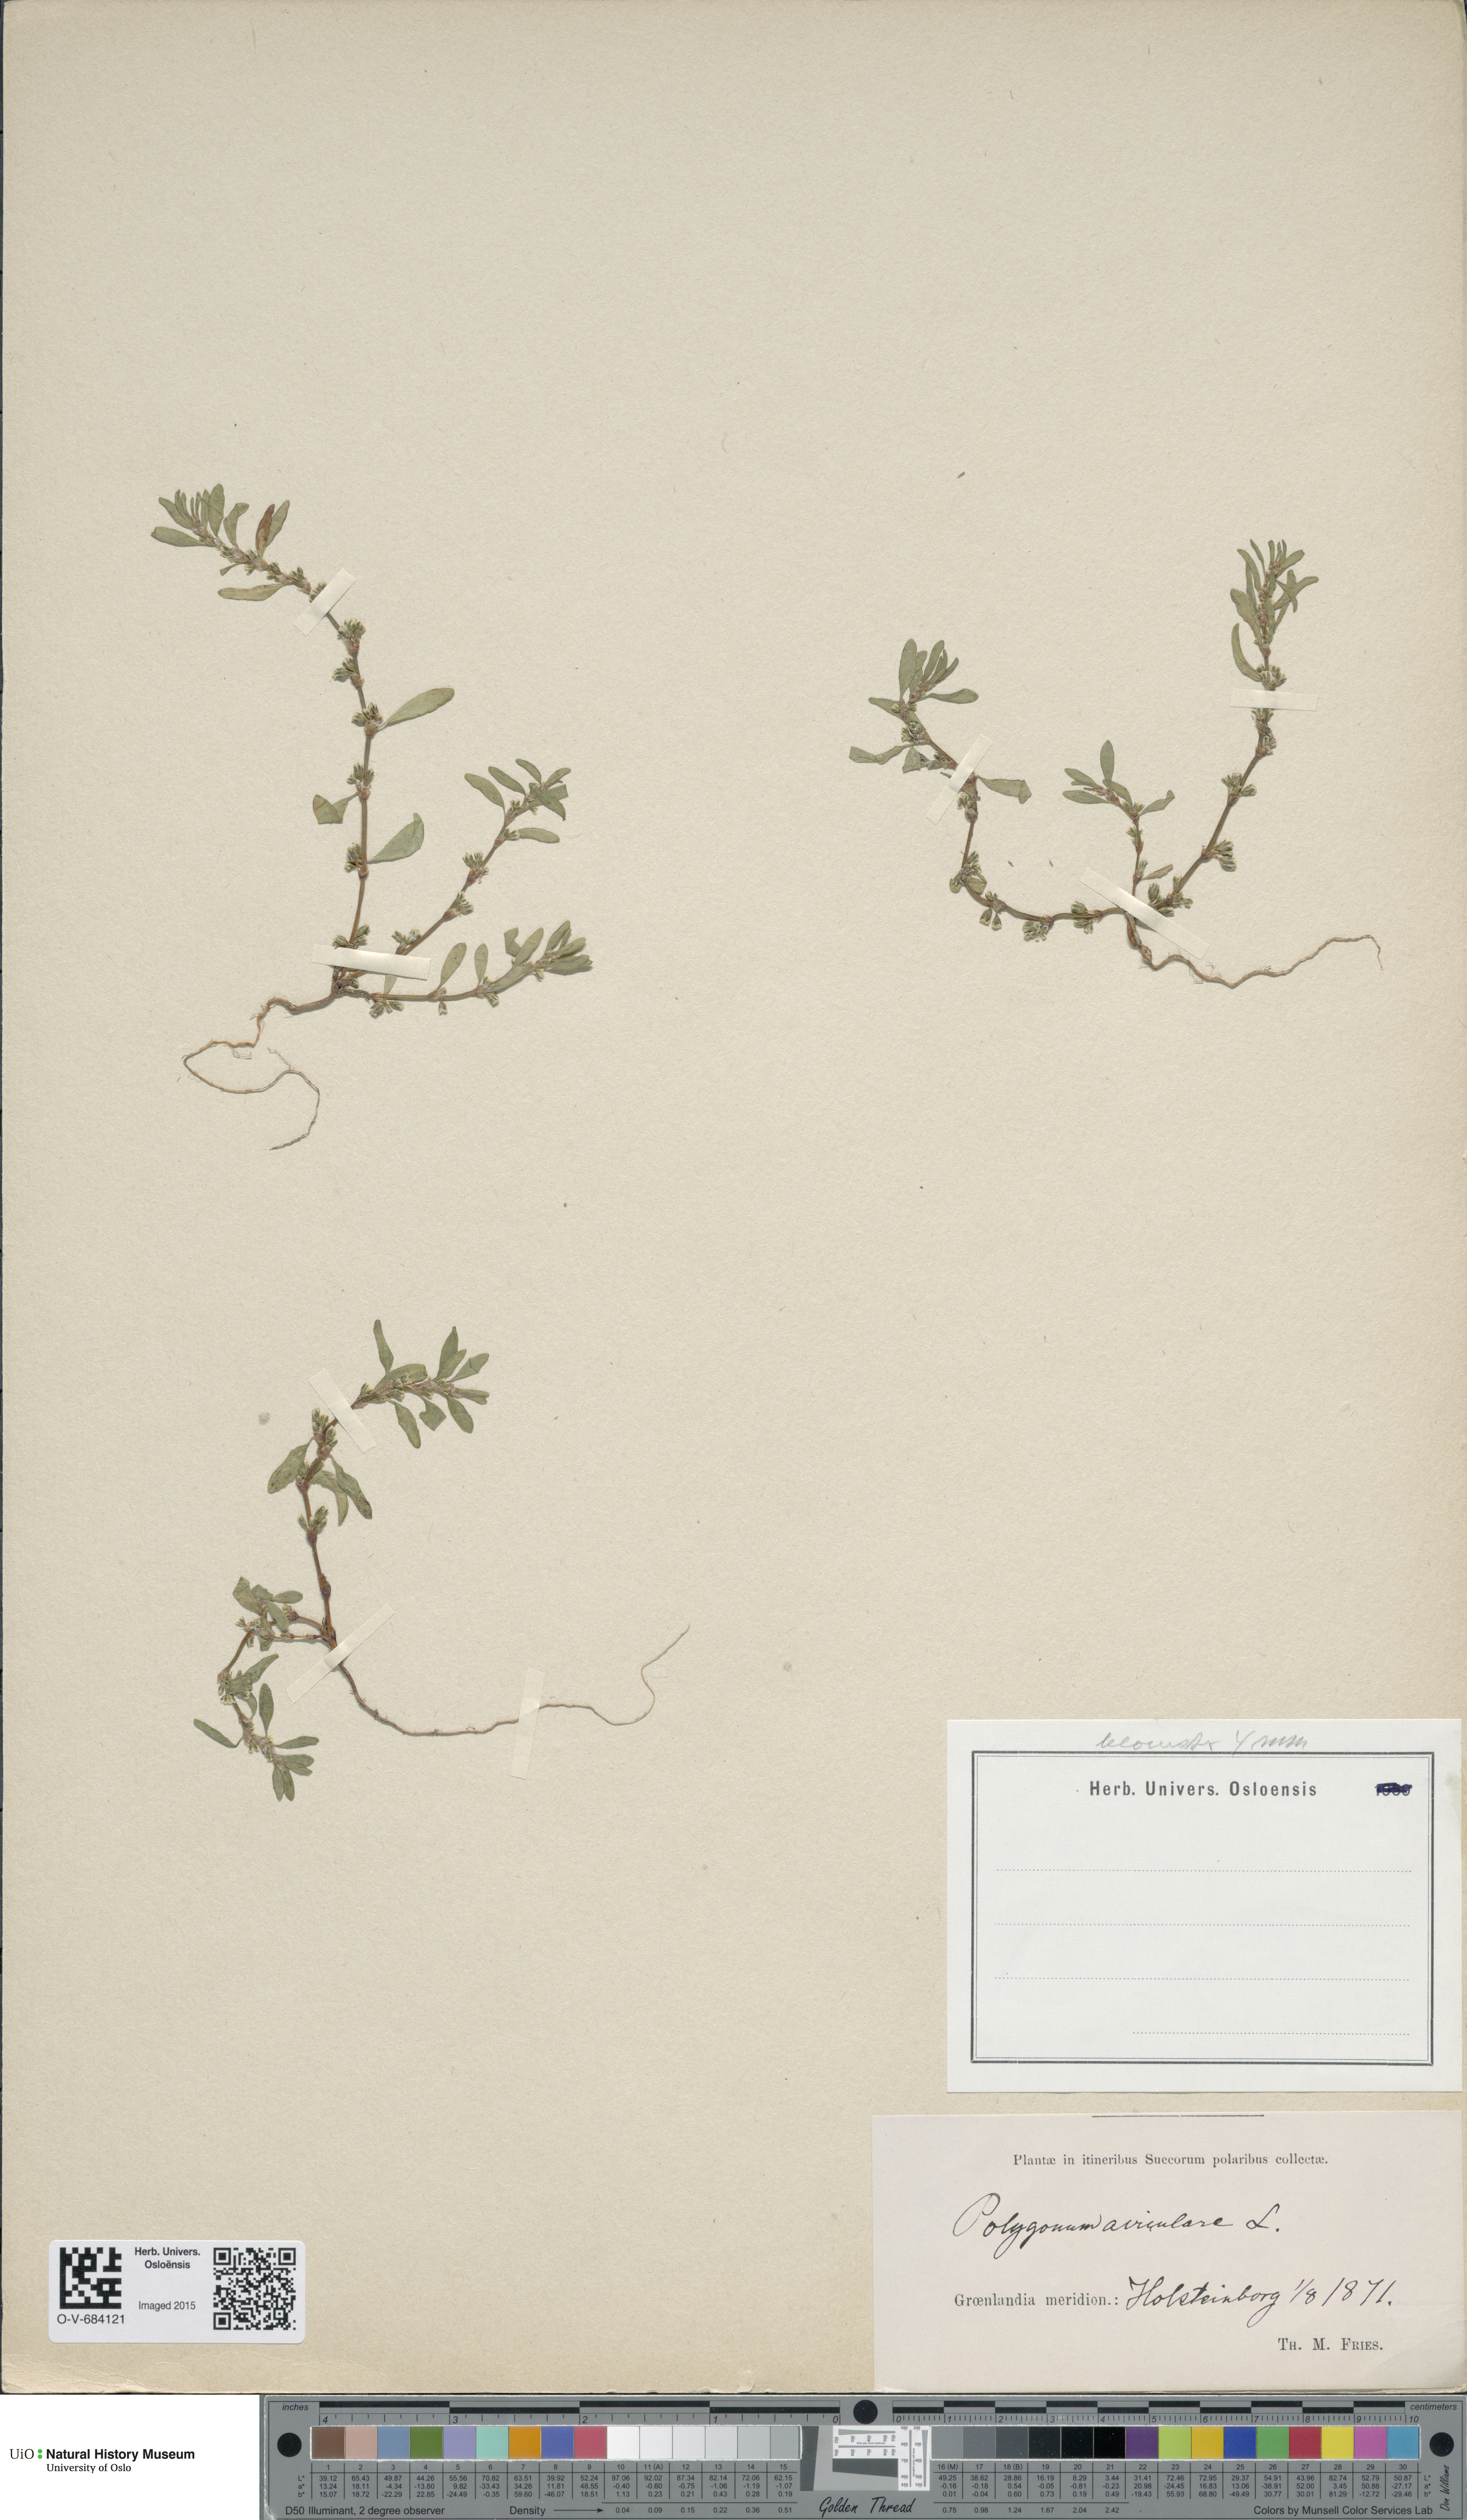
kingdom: Plantae
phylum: Tracheophyta
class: Magnoliopsida
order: Caryophyllales
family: Polygonaceae
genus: Polygonum
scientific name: Polygonum aviculare
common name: Prostrate knotweed
